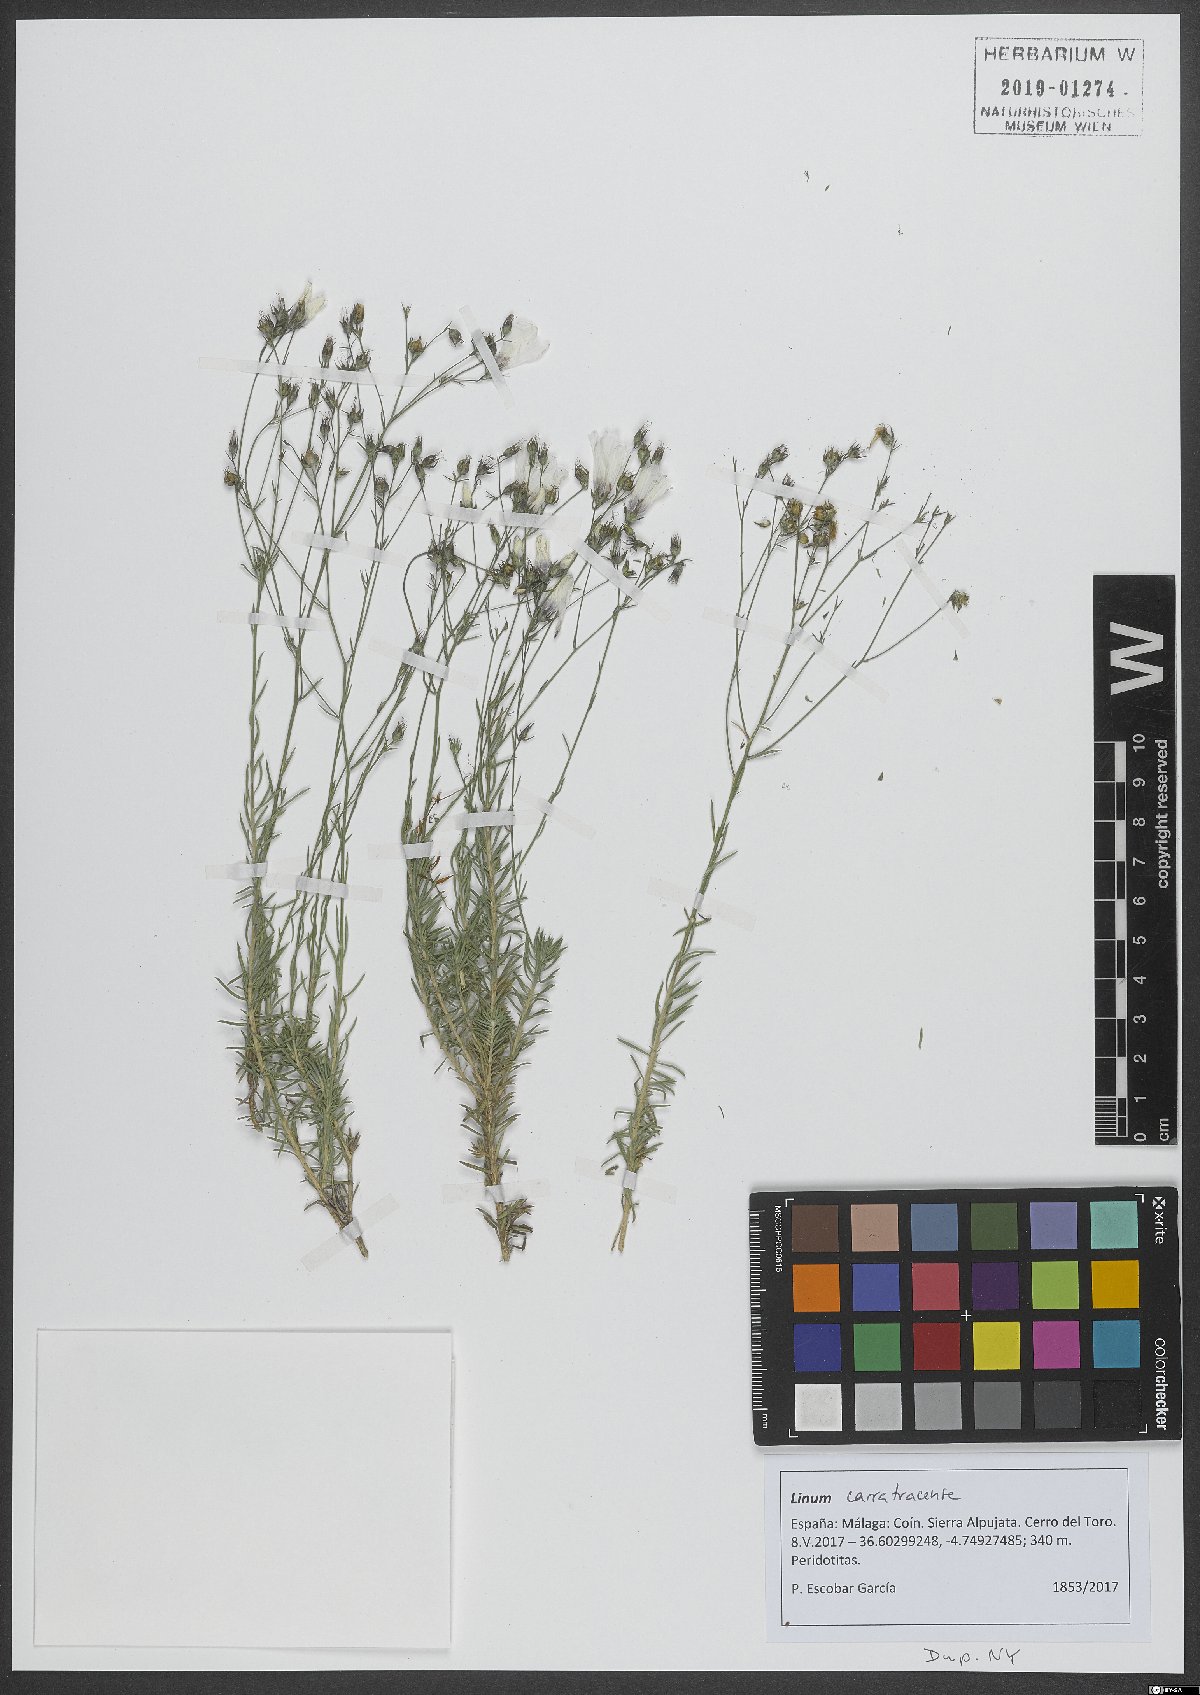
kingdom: Plantae
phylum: Tracheophyta
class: Magnoliopsida
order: Malpighiales
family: Linaceae
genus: Linum
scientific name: Linum carratracense
